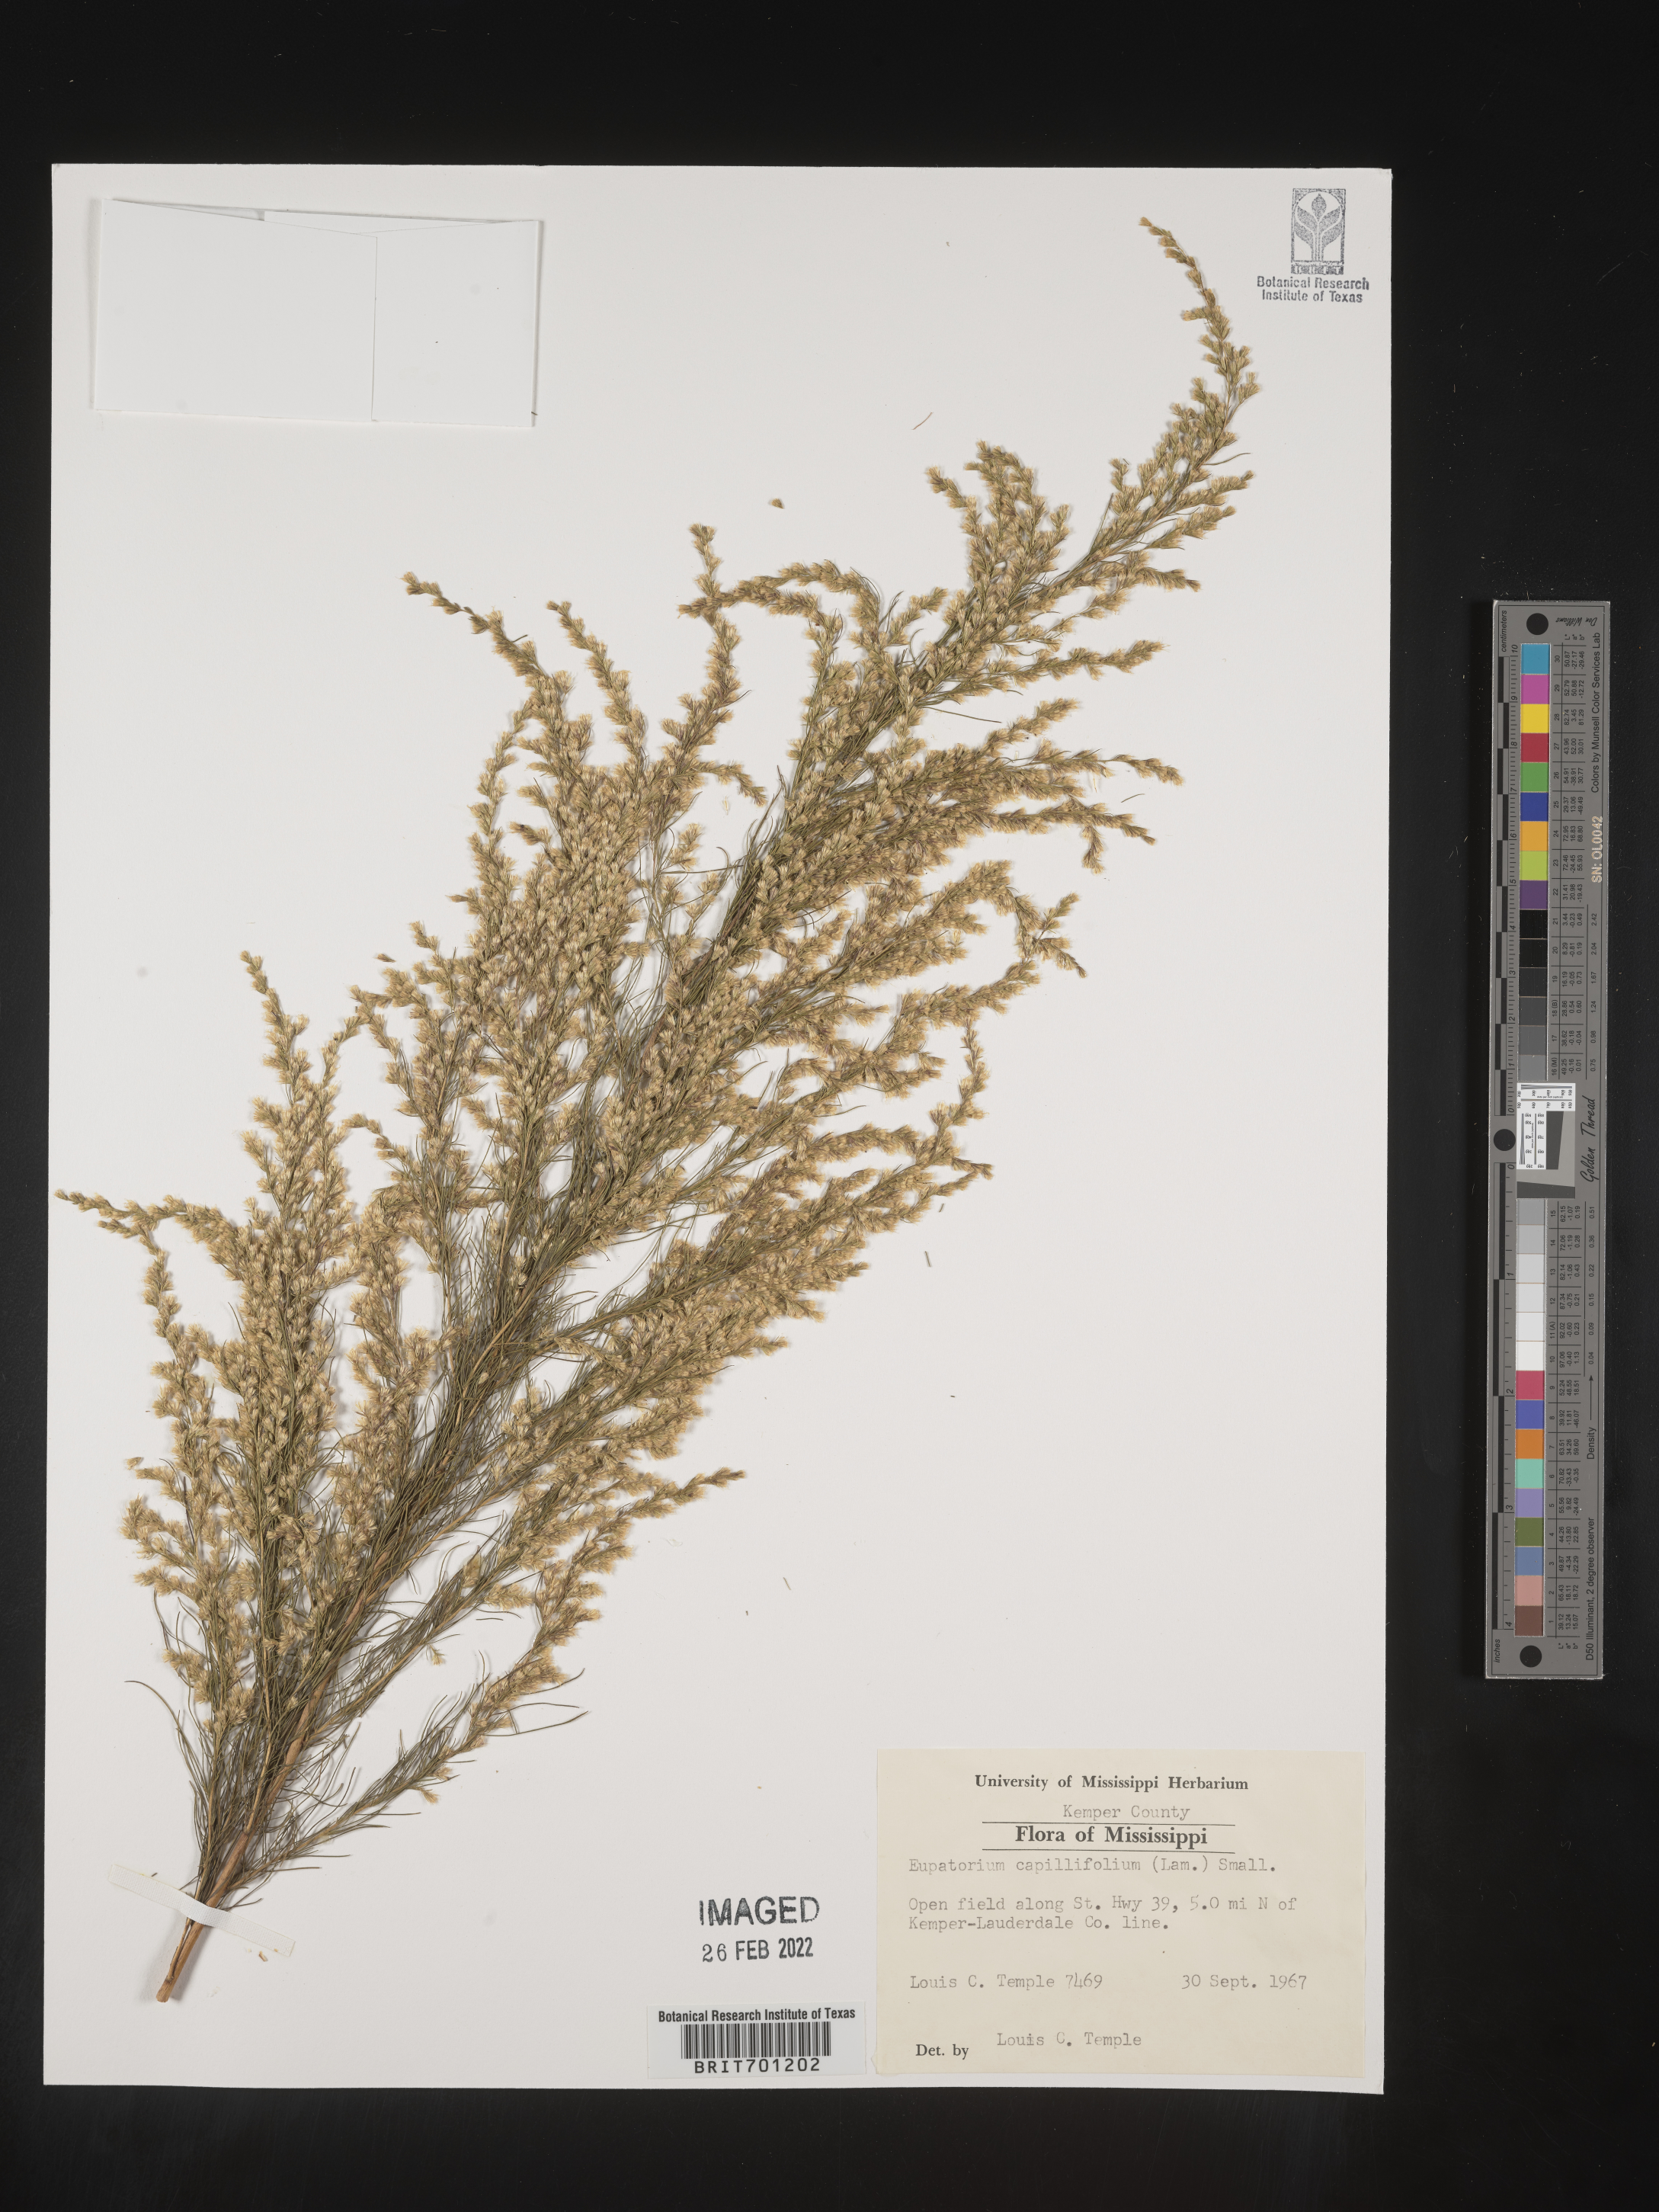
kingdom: Plantae
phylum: Tracheophyta
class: Magnoliopsida
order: Asterales
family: Asteraceae
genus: Eupatorium
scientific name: Eupatorium capillifolium
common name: Dog-fennel
